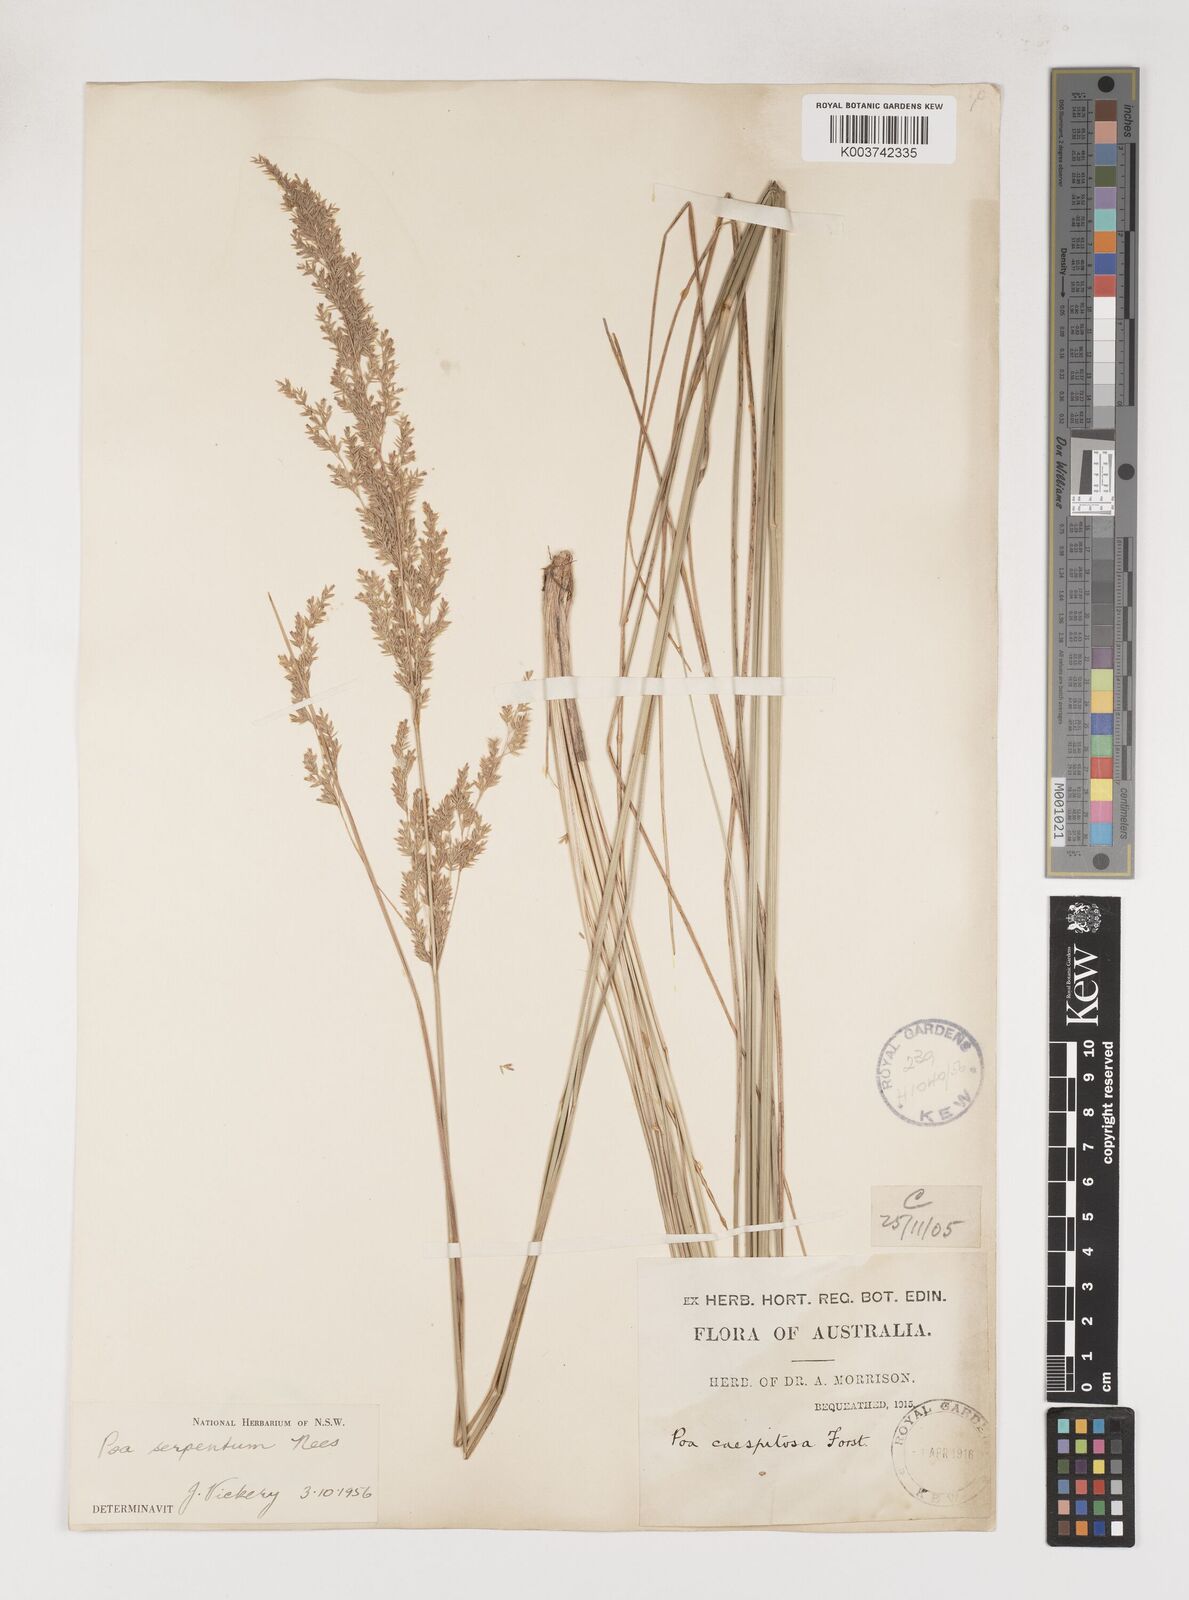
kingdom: Plantae
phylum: Tracheophyta
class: Liliopsida
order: Poales
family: Poaceae
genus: Poa
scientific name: Poa porphyroclados
